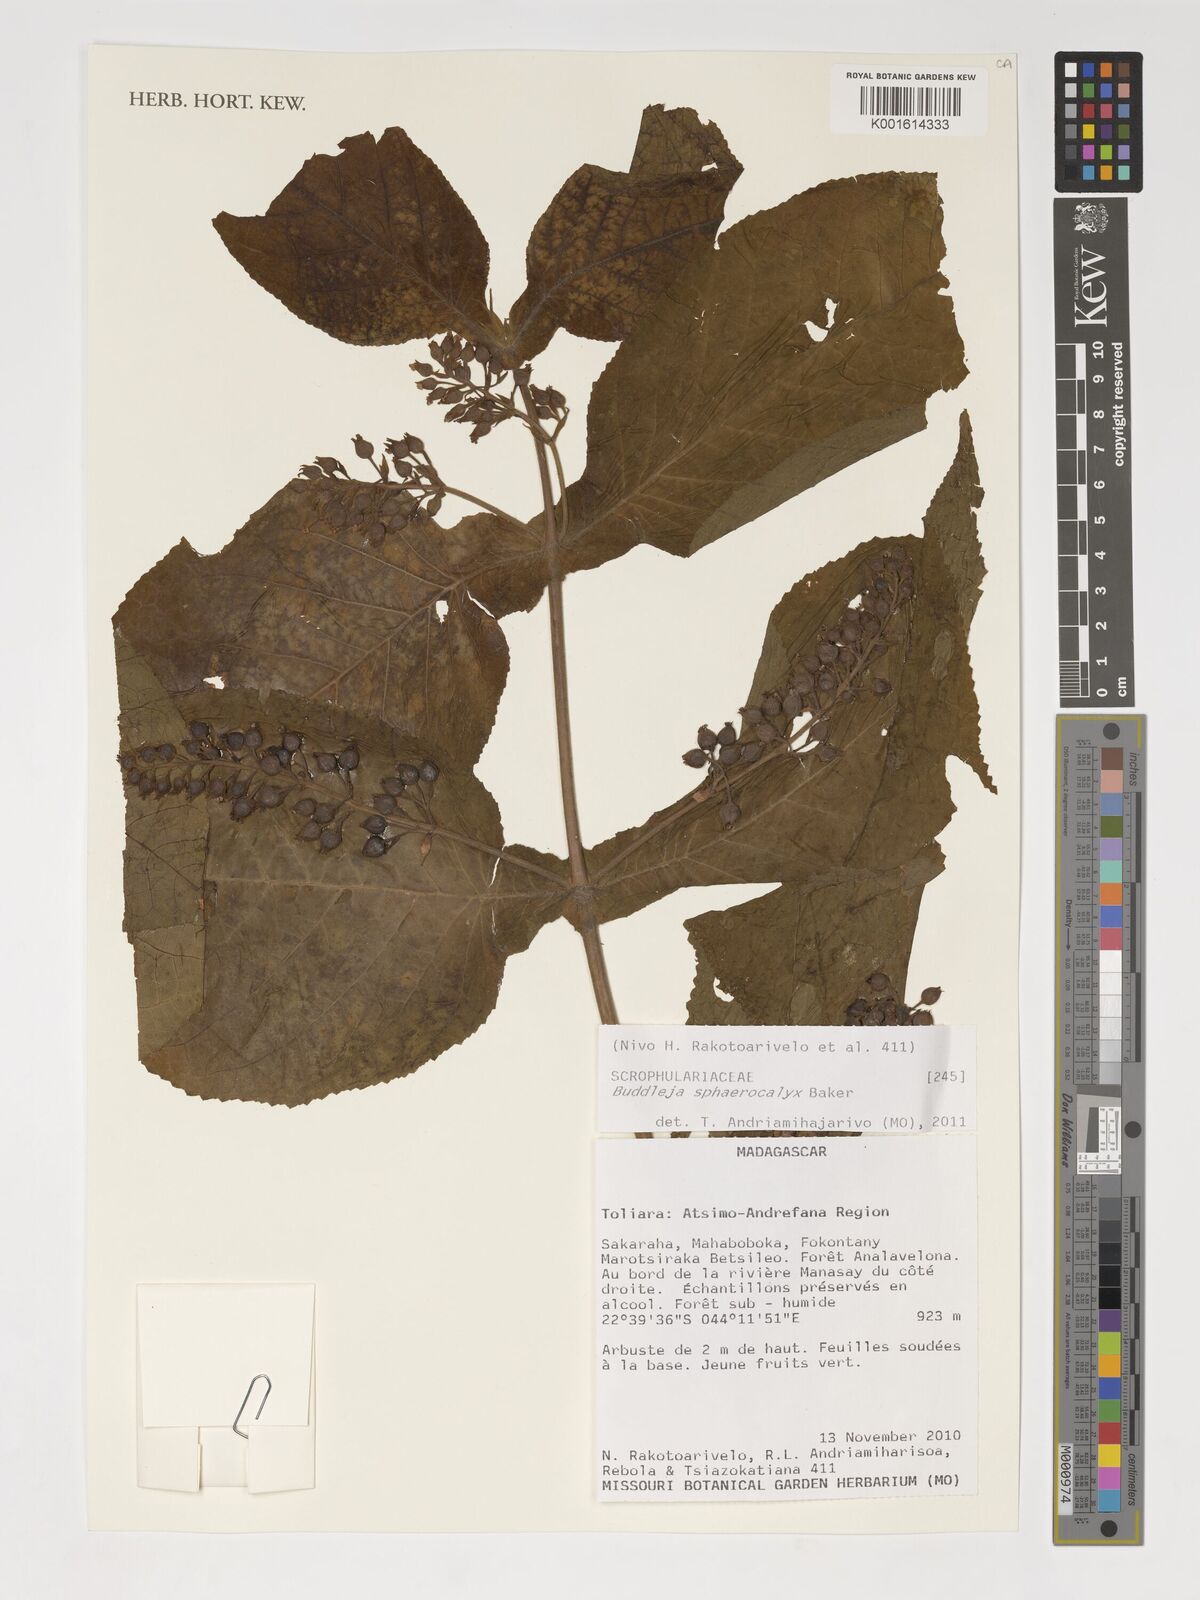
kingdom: Plantae
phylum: Tracheophyta
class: Magnoliopsida
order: Lamiales
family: Scrophulariaceae
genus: Buddleja
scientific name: Buddleja sphaerocalyx
